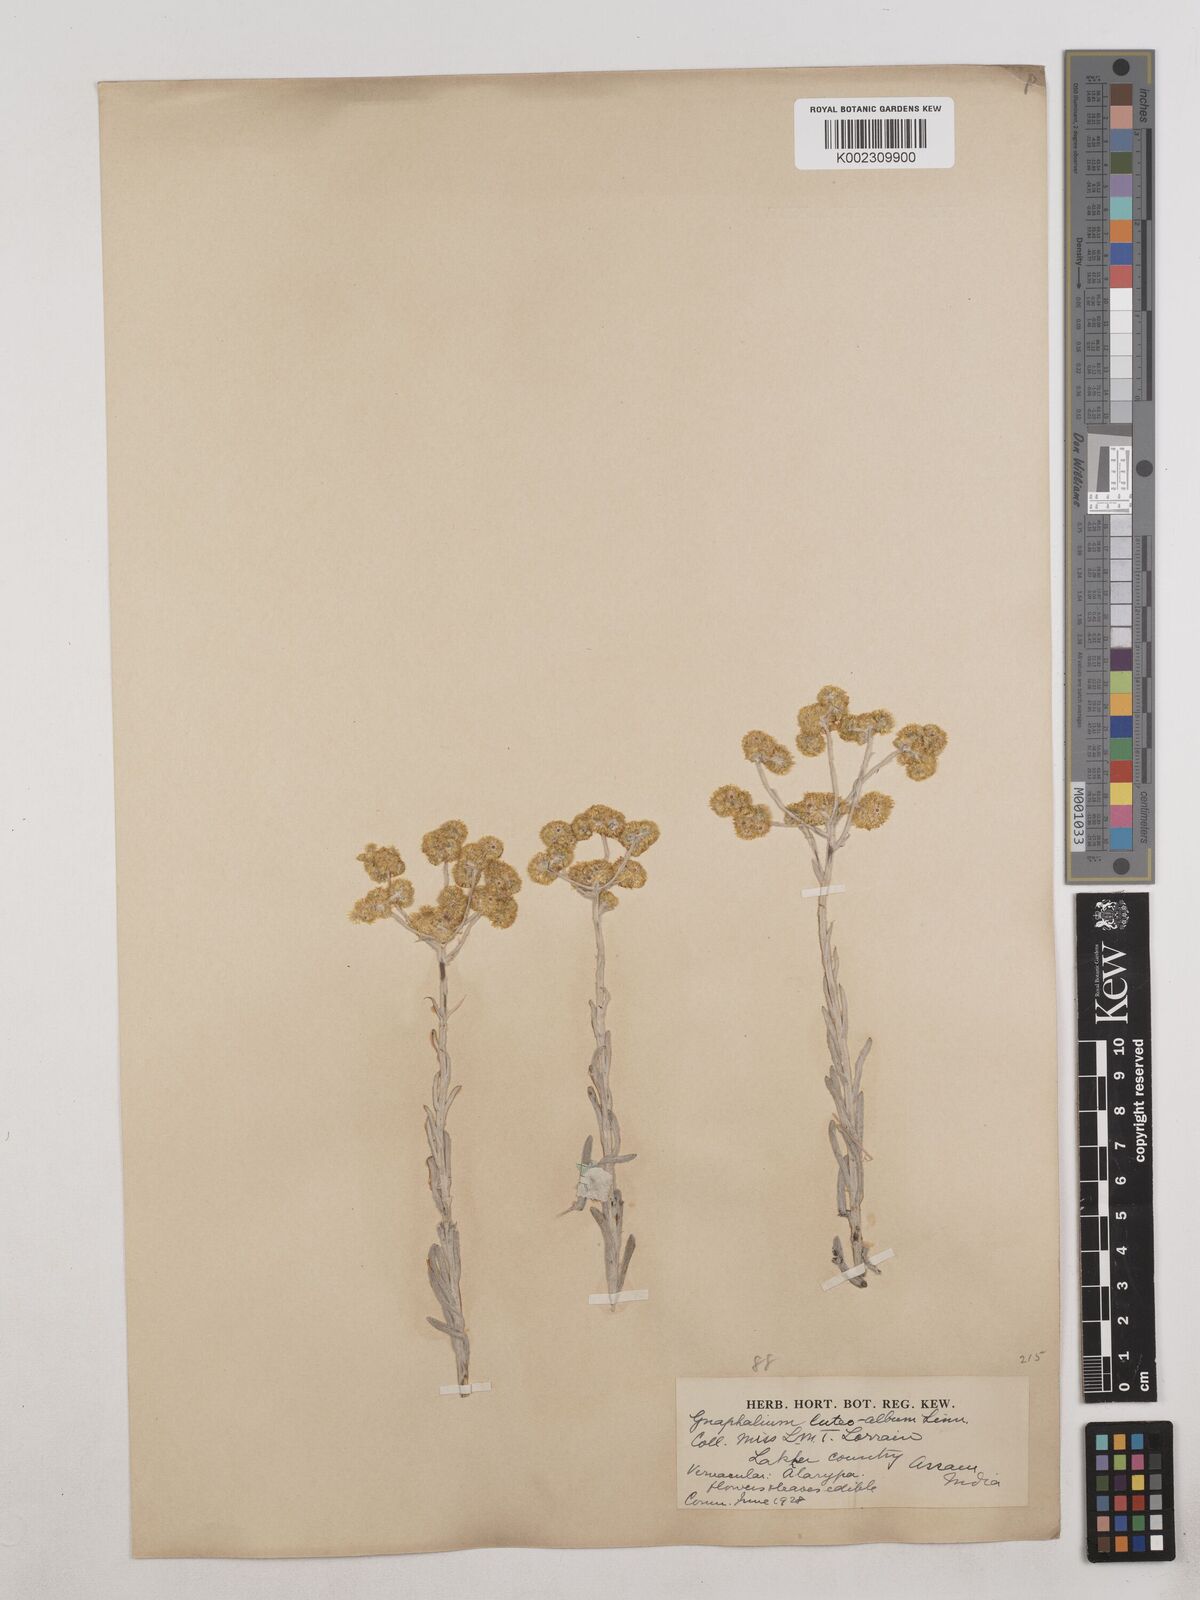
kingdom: Plantae
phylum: Tracheophyta
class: Magnoliopsida
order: Asterales
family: Asteraceae
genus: Pseudognaphalium
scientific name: Pseudognaphalium affine
